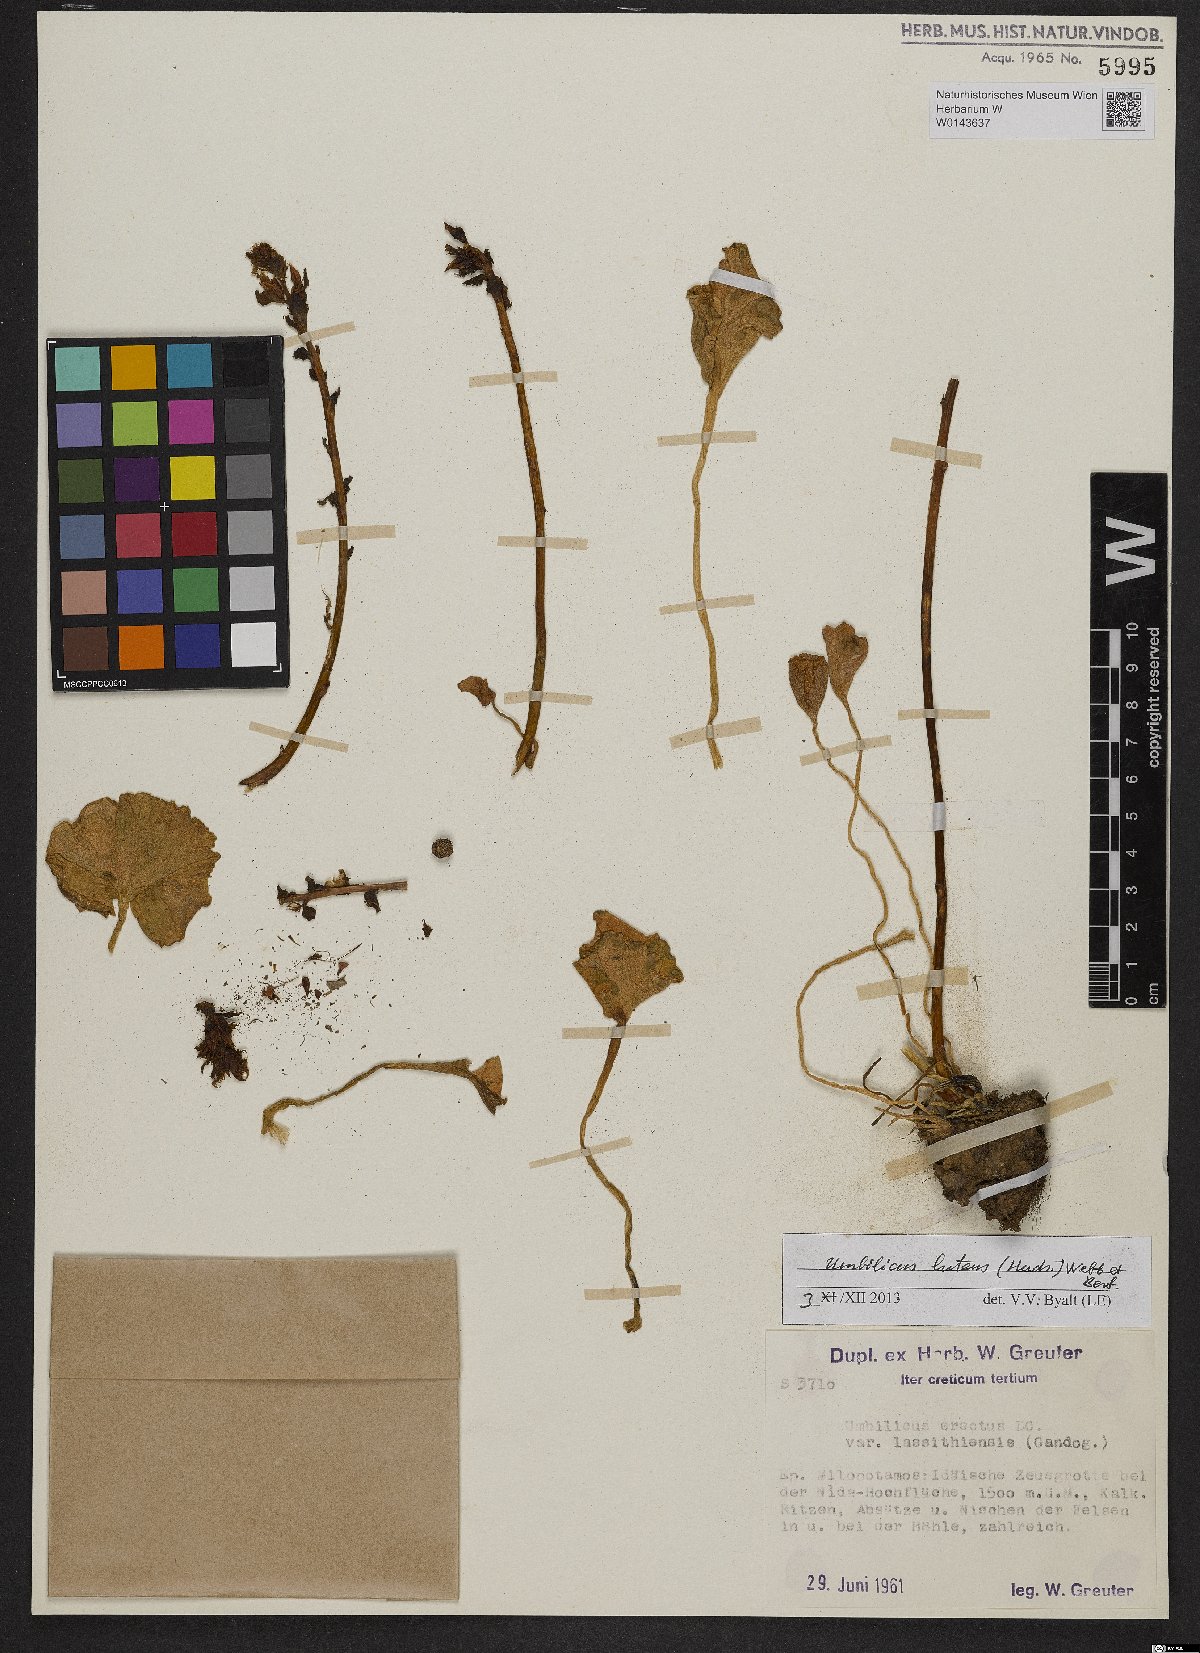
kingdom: Plantae
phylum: Tracheophyta
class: Magnoliopsida
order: Saxifragales
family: Crassulaceae
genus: Umbilicus
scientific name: Umbilicus luteus
